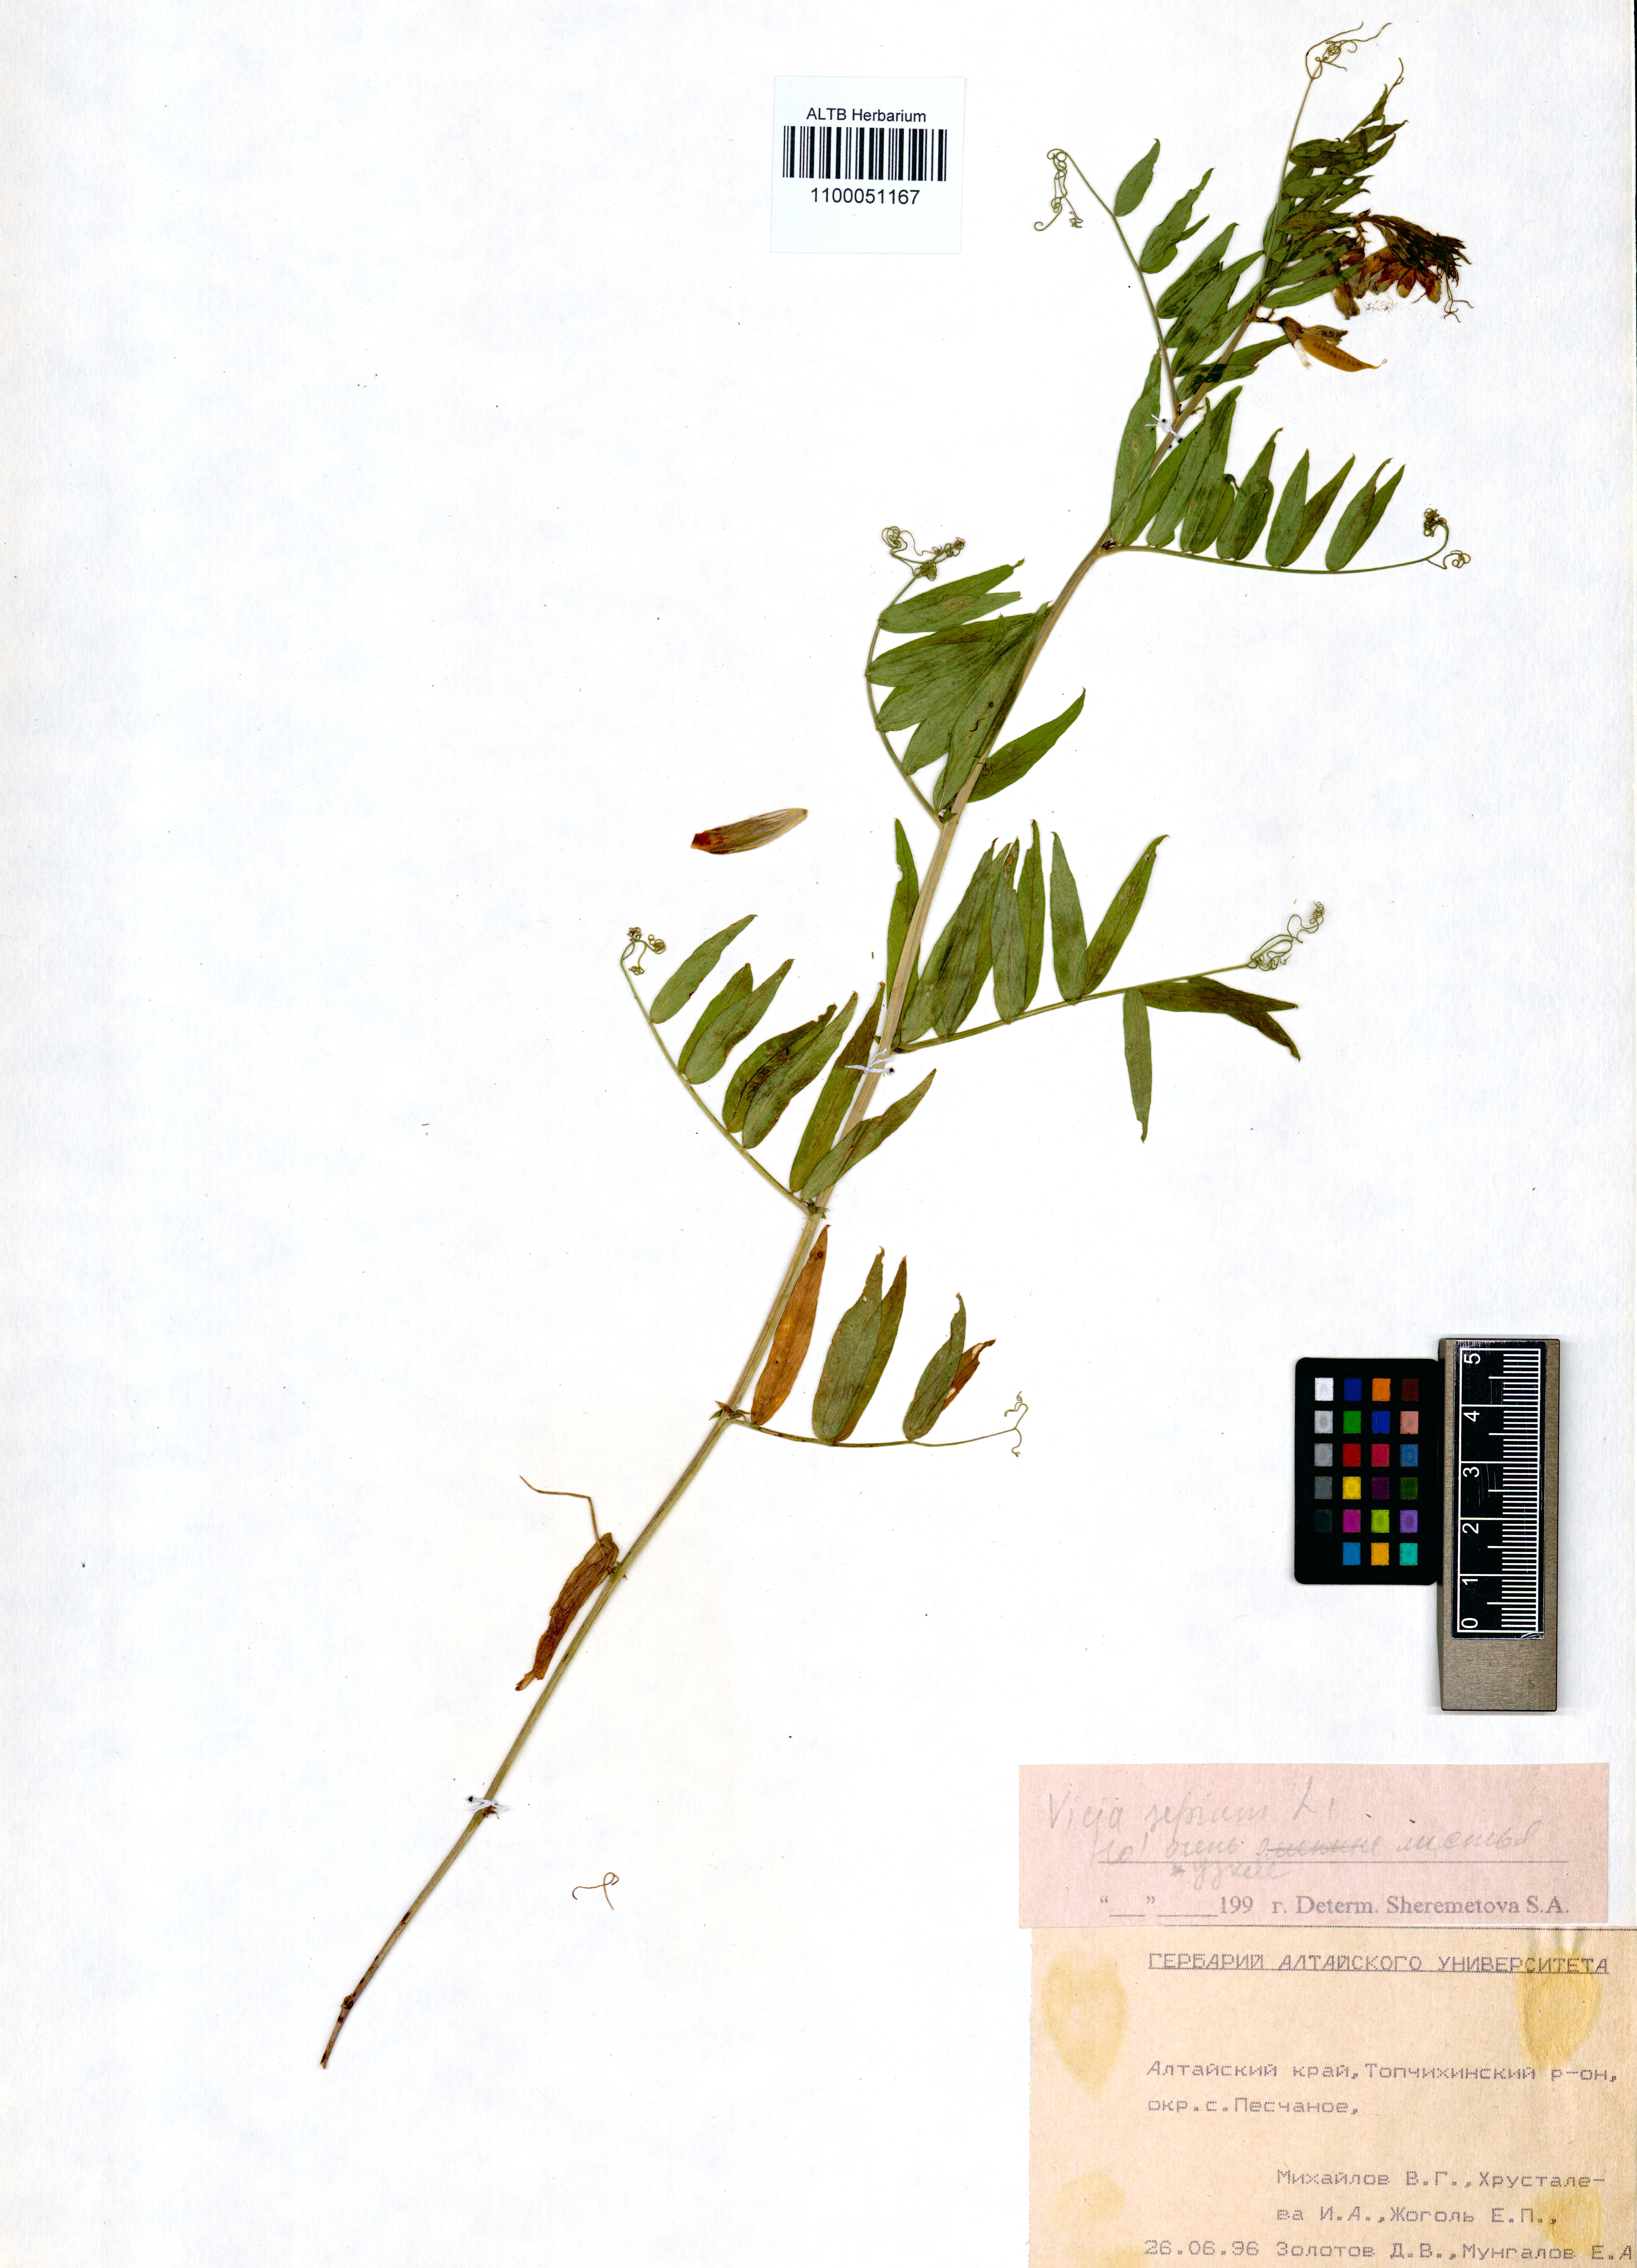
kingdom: Plantae
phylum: Tracheophyta
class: Magnoliopsida
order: Fabales
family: Fabaceae
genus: Vicia
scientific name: Vicia sepium
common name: Bush vetch
